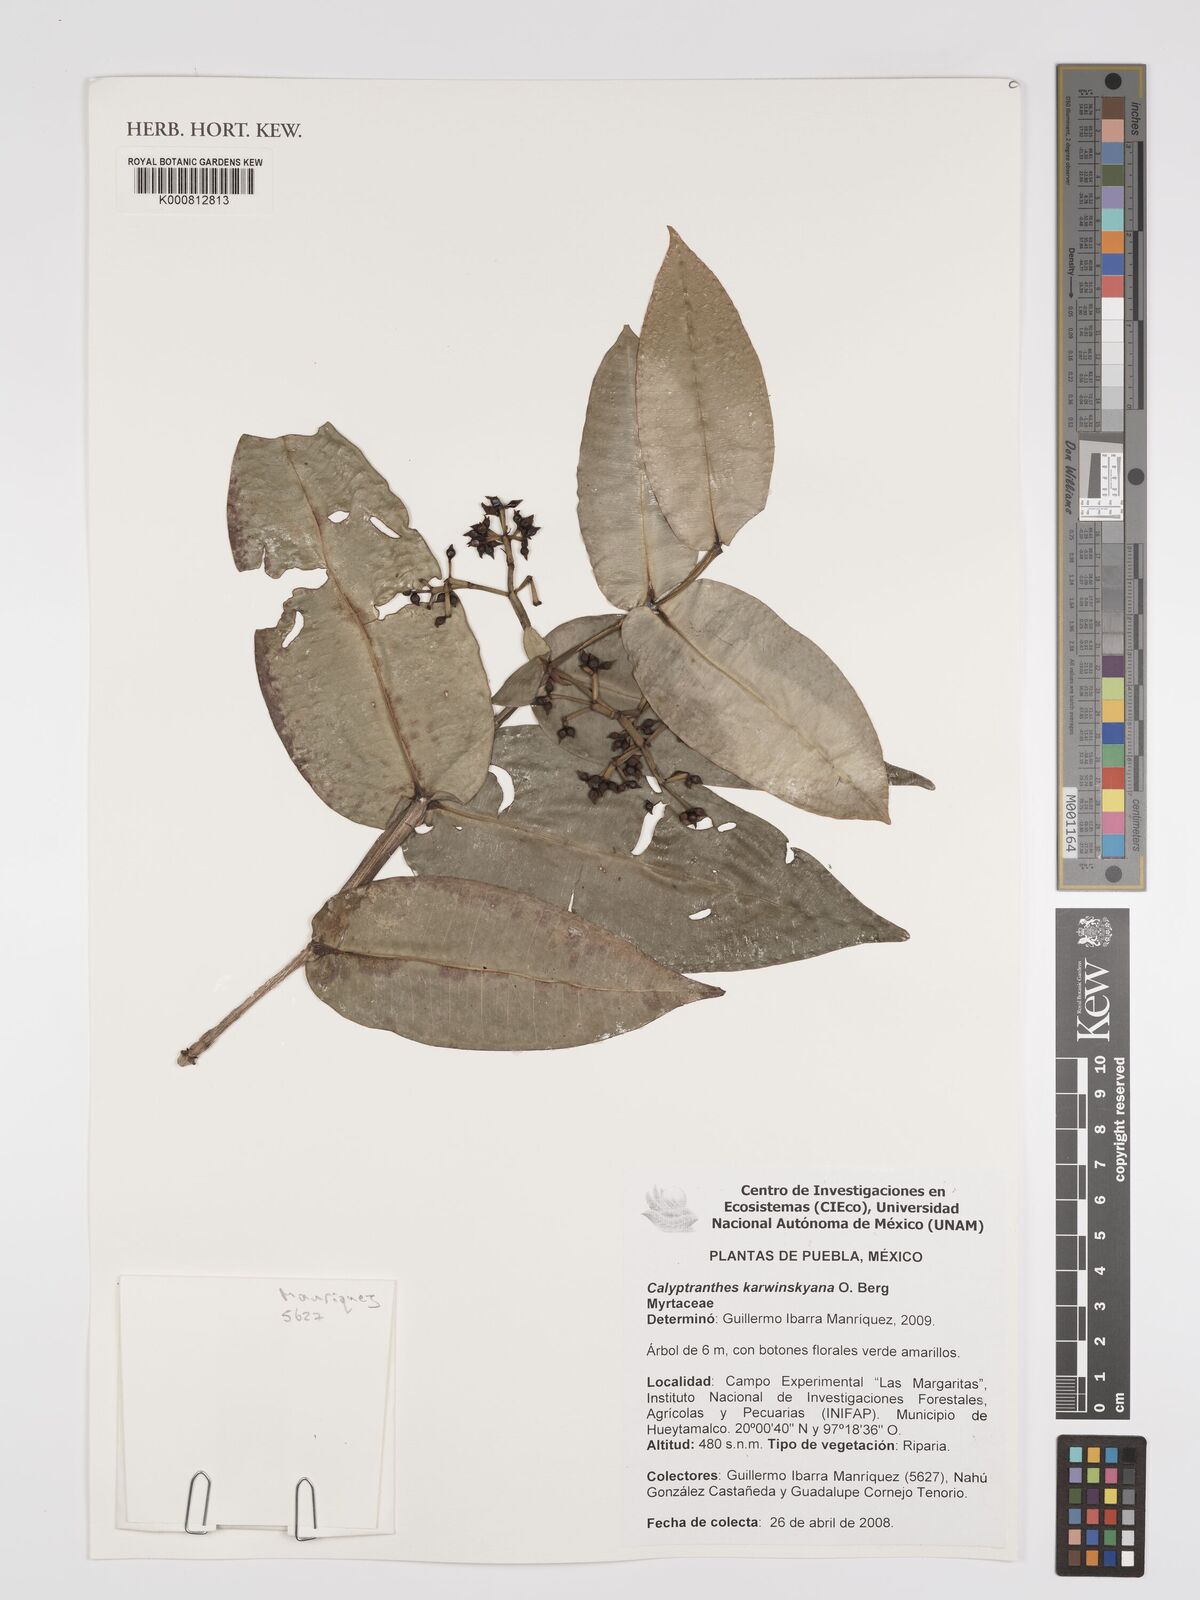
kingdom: Plantae
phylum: Tracheophyta
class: Magnoliopsida
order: Myrtales
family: Myrtaceae
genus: Myrcia
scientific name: Myrcia karwinskyana
